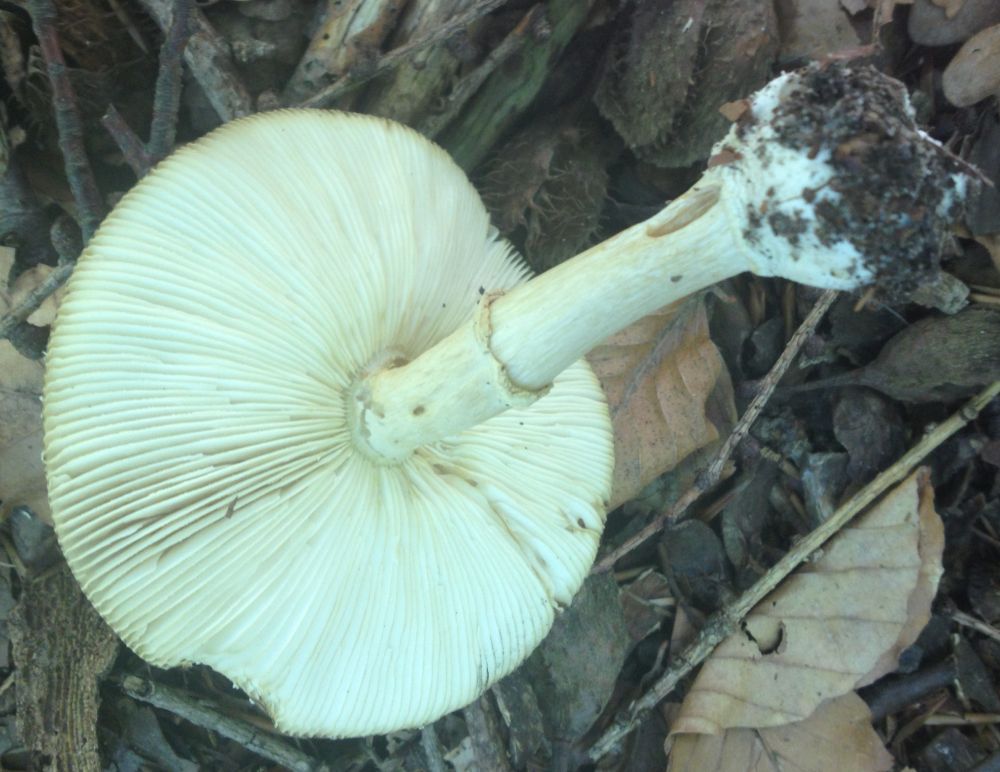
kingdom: Fungi
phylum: Basidiomycota
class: Agaricomycetes
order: Agaricales
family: Amanitaceae
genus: Amanita
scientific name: Amanita pantherina
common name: panter-fluesvamp
